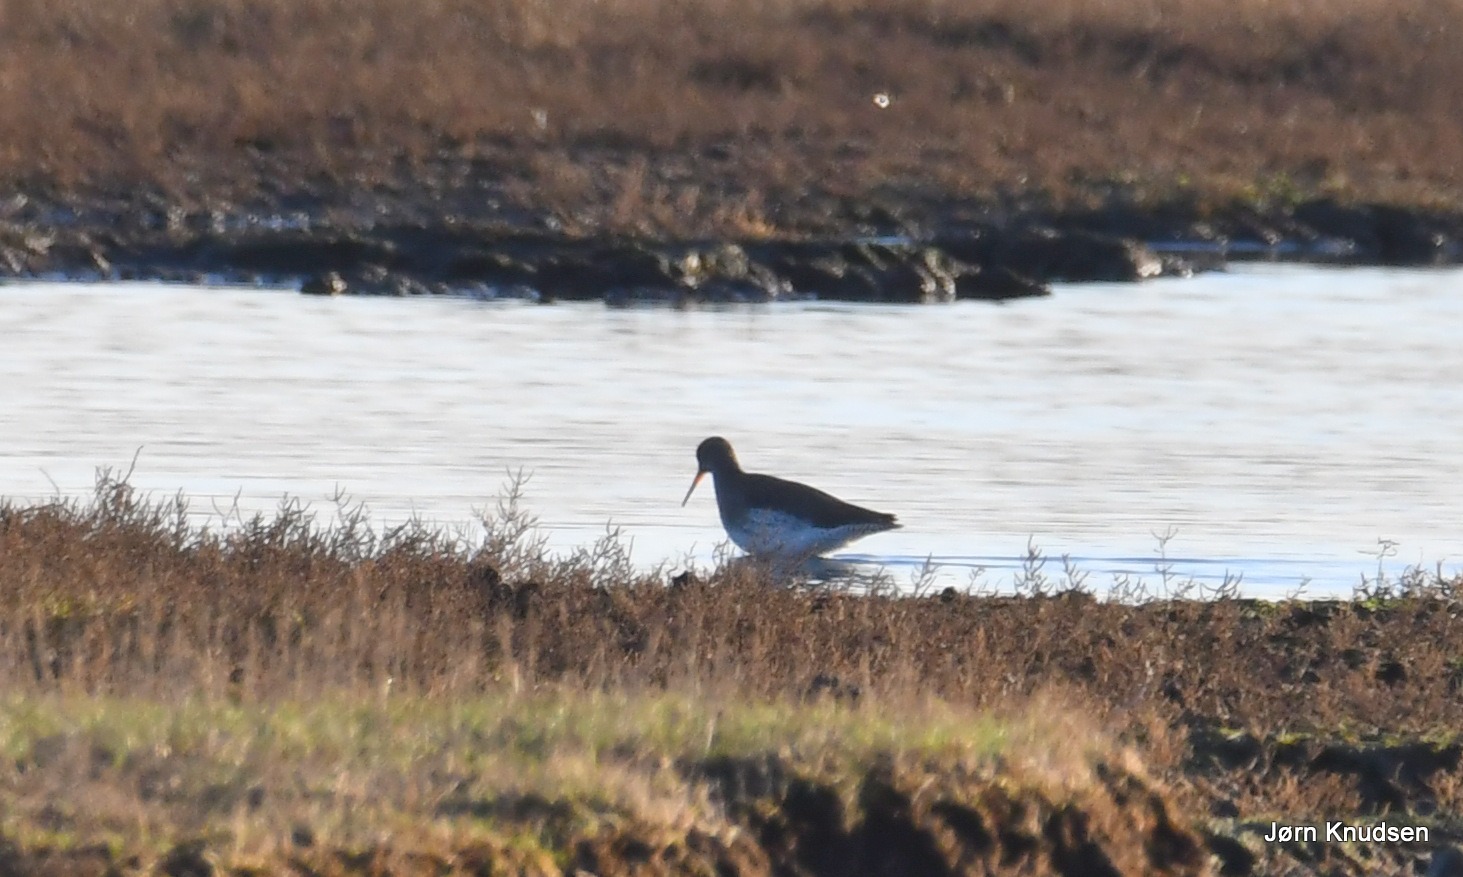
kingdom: Animalia
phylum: Chordata
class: Aves
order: Charadriiformes
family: Scolopacidae
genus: Tringa
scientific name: Tringa totanus
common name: Rødben
